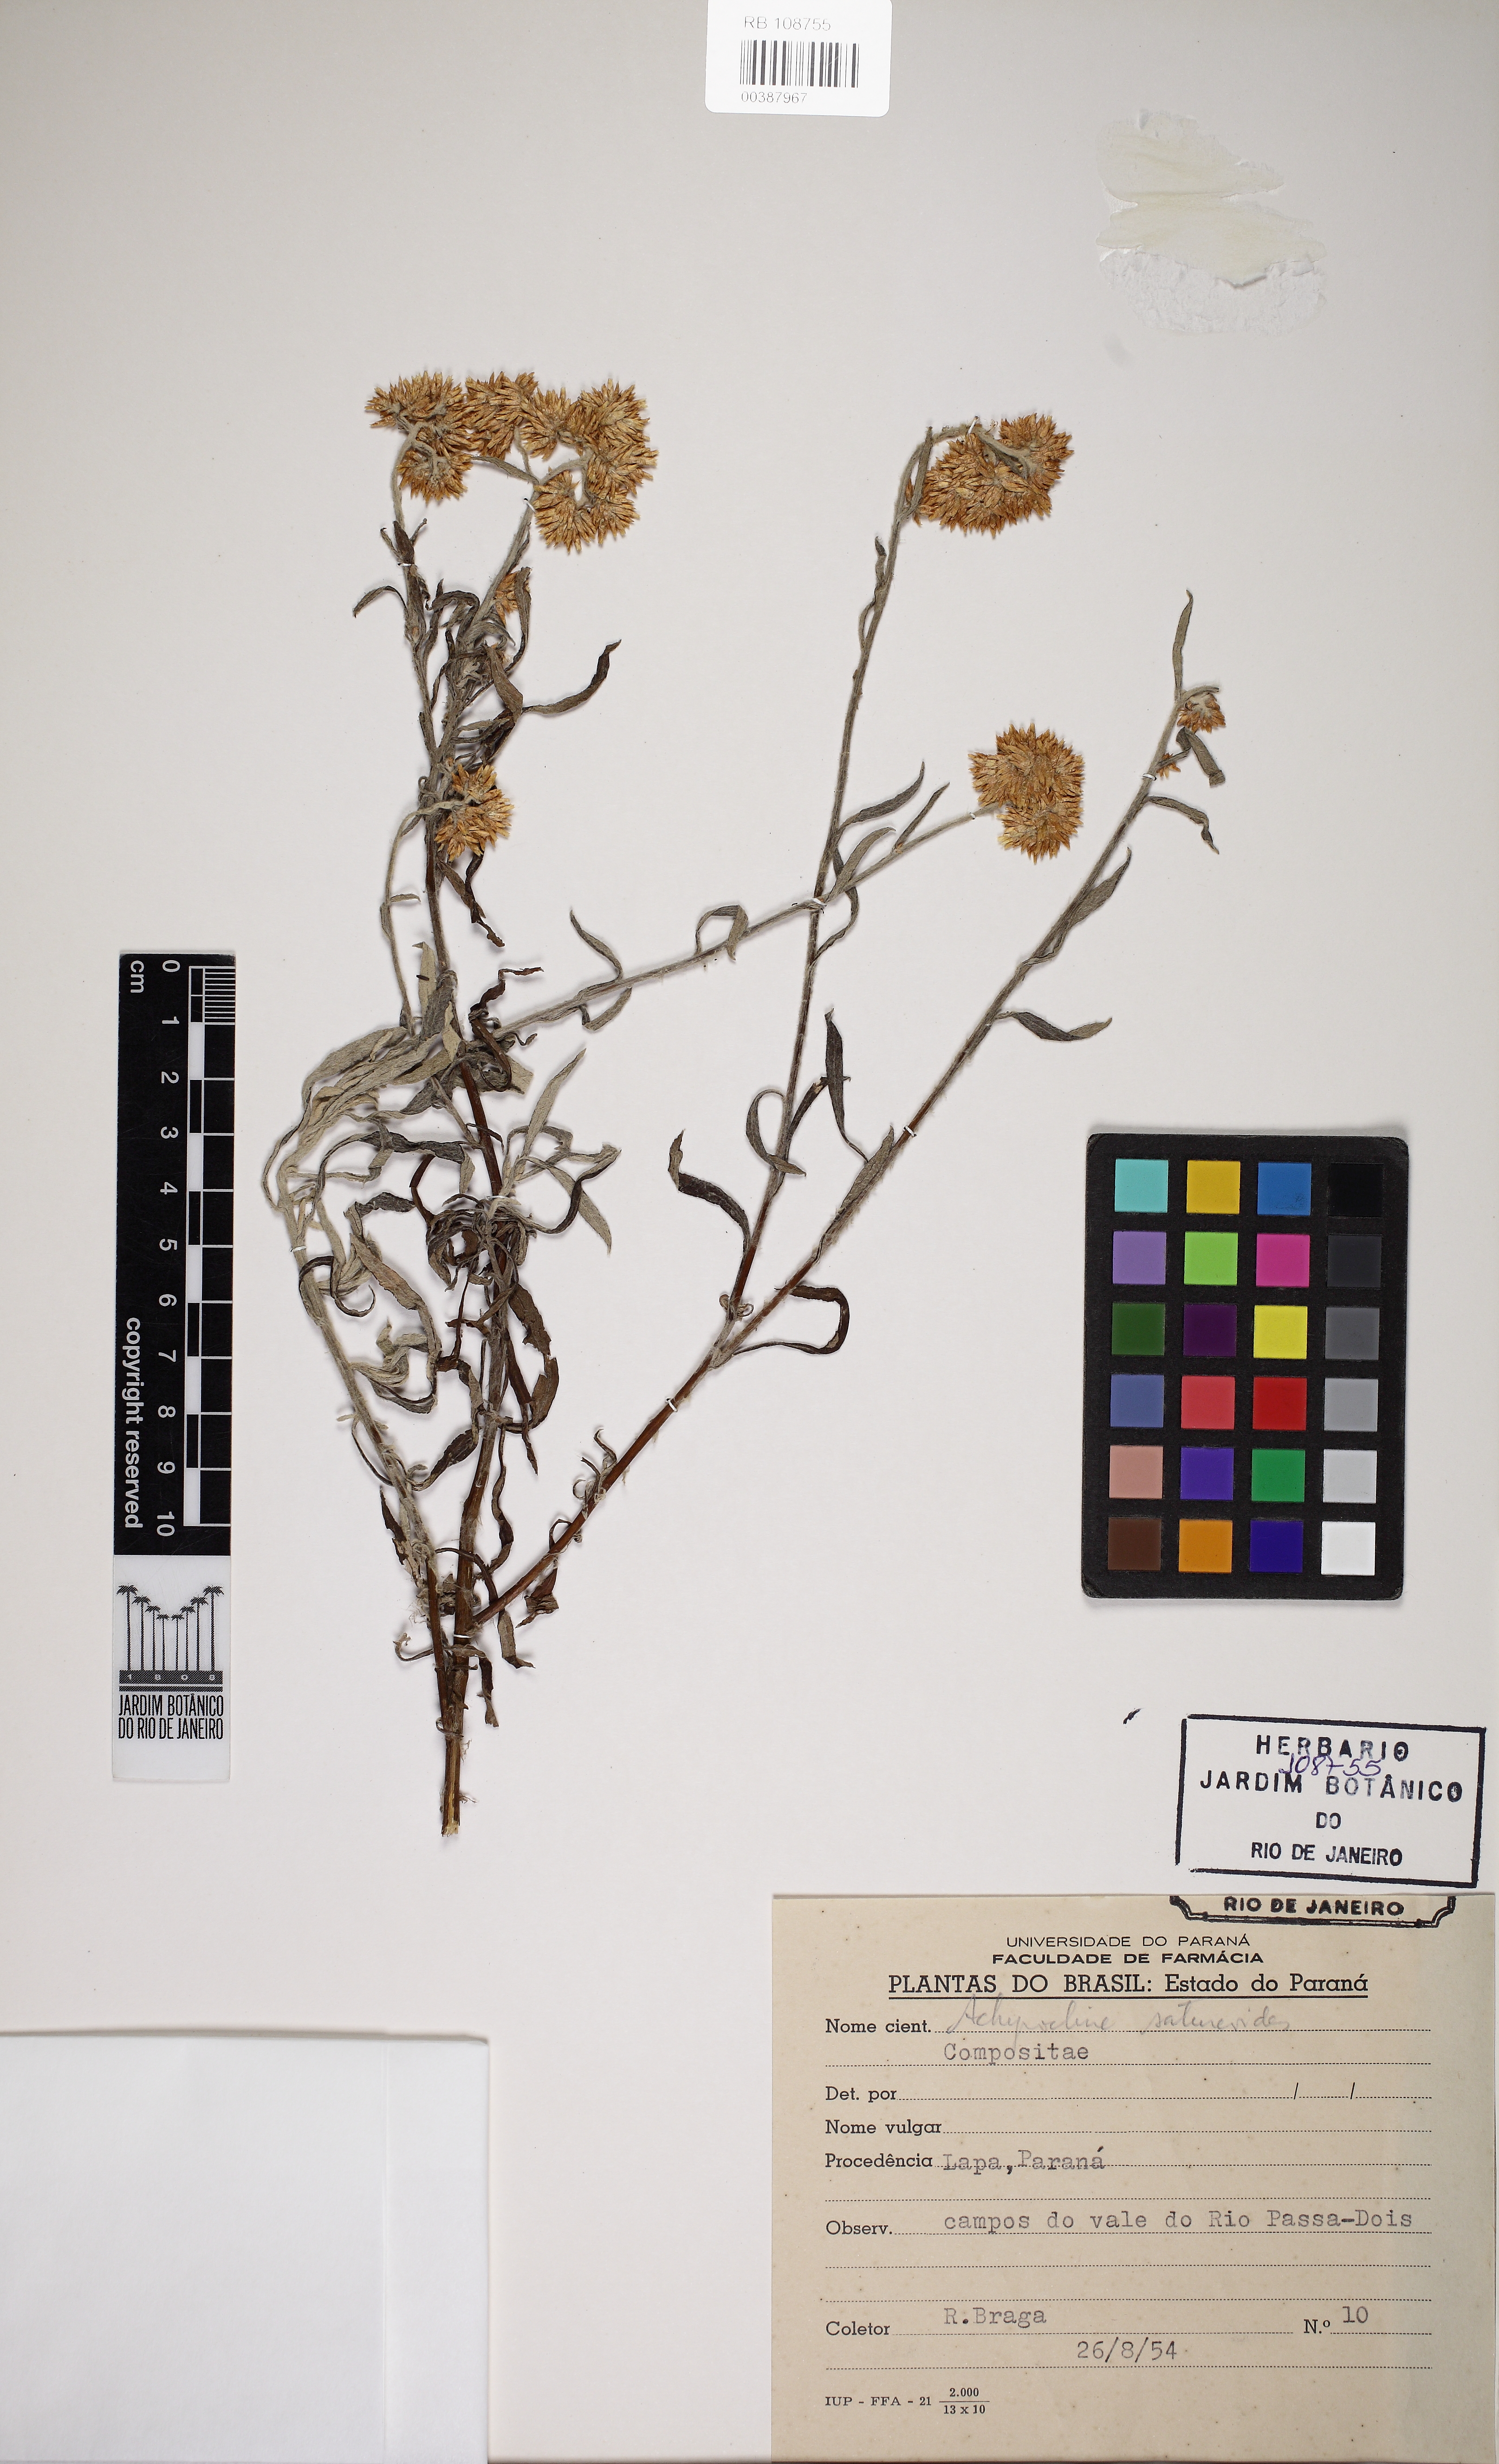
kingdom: Plantae
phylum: Tracheophyta
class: Magnoliopsida
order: Asterales
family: Asteraceae
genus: Achyrocline
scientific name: Achyrocline satureioides
